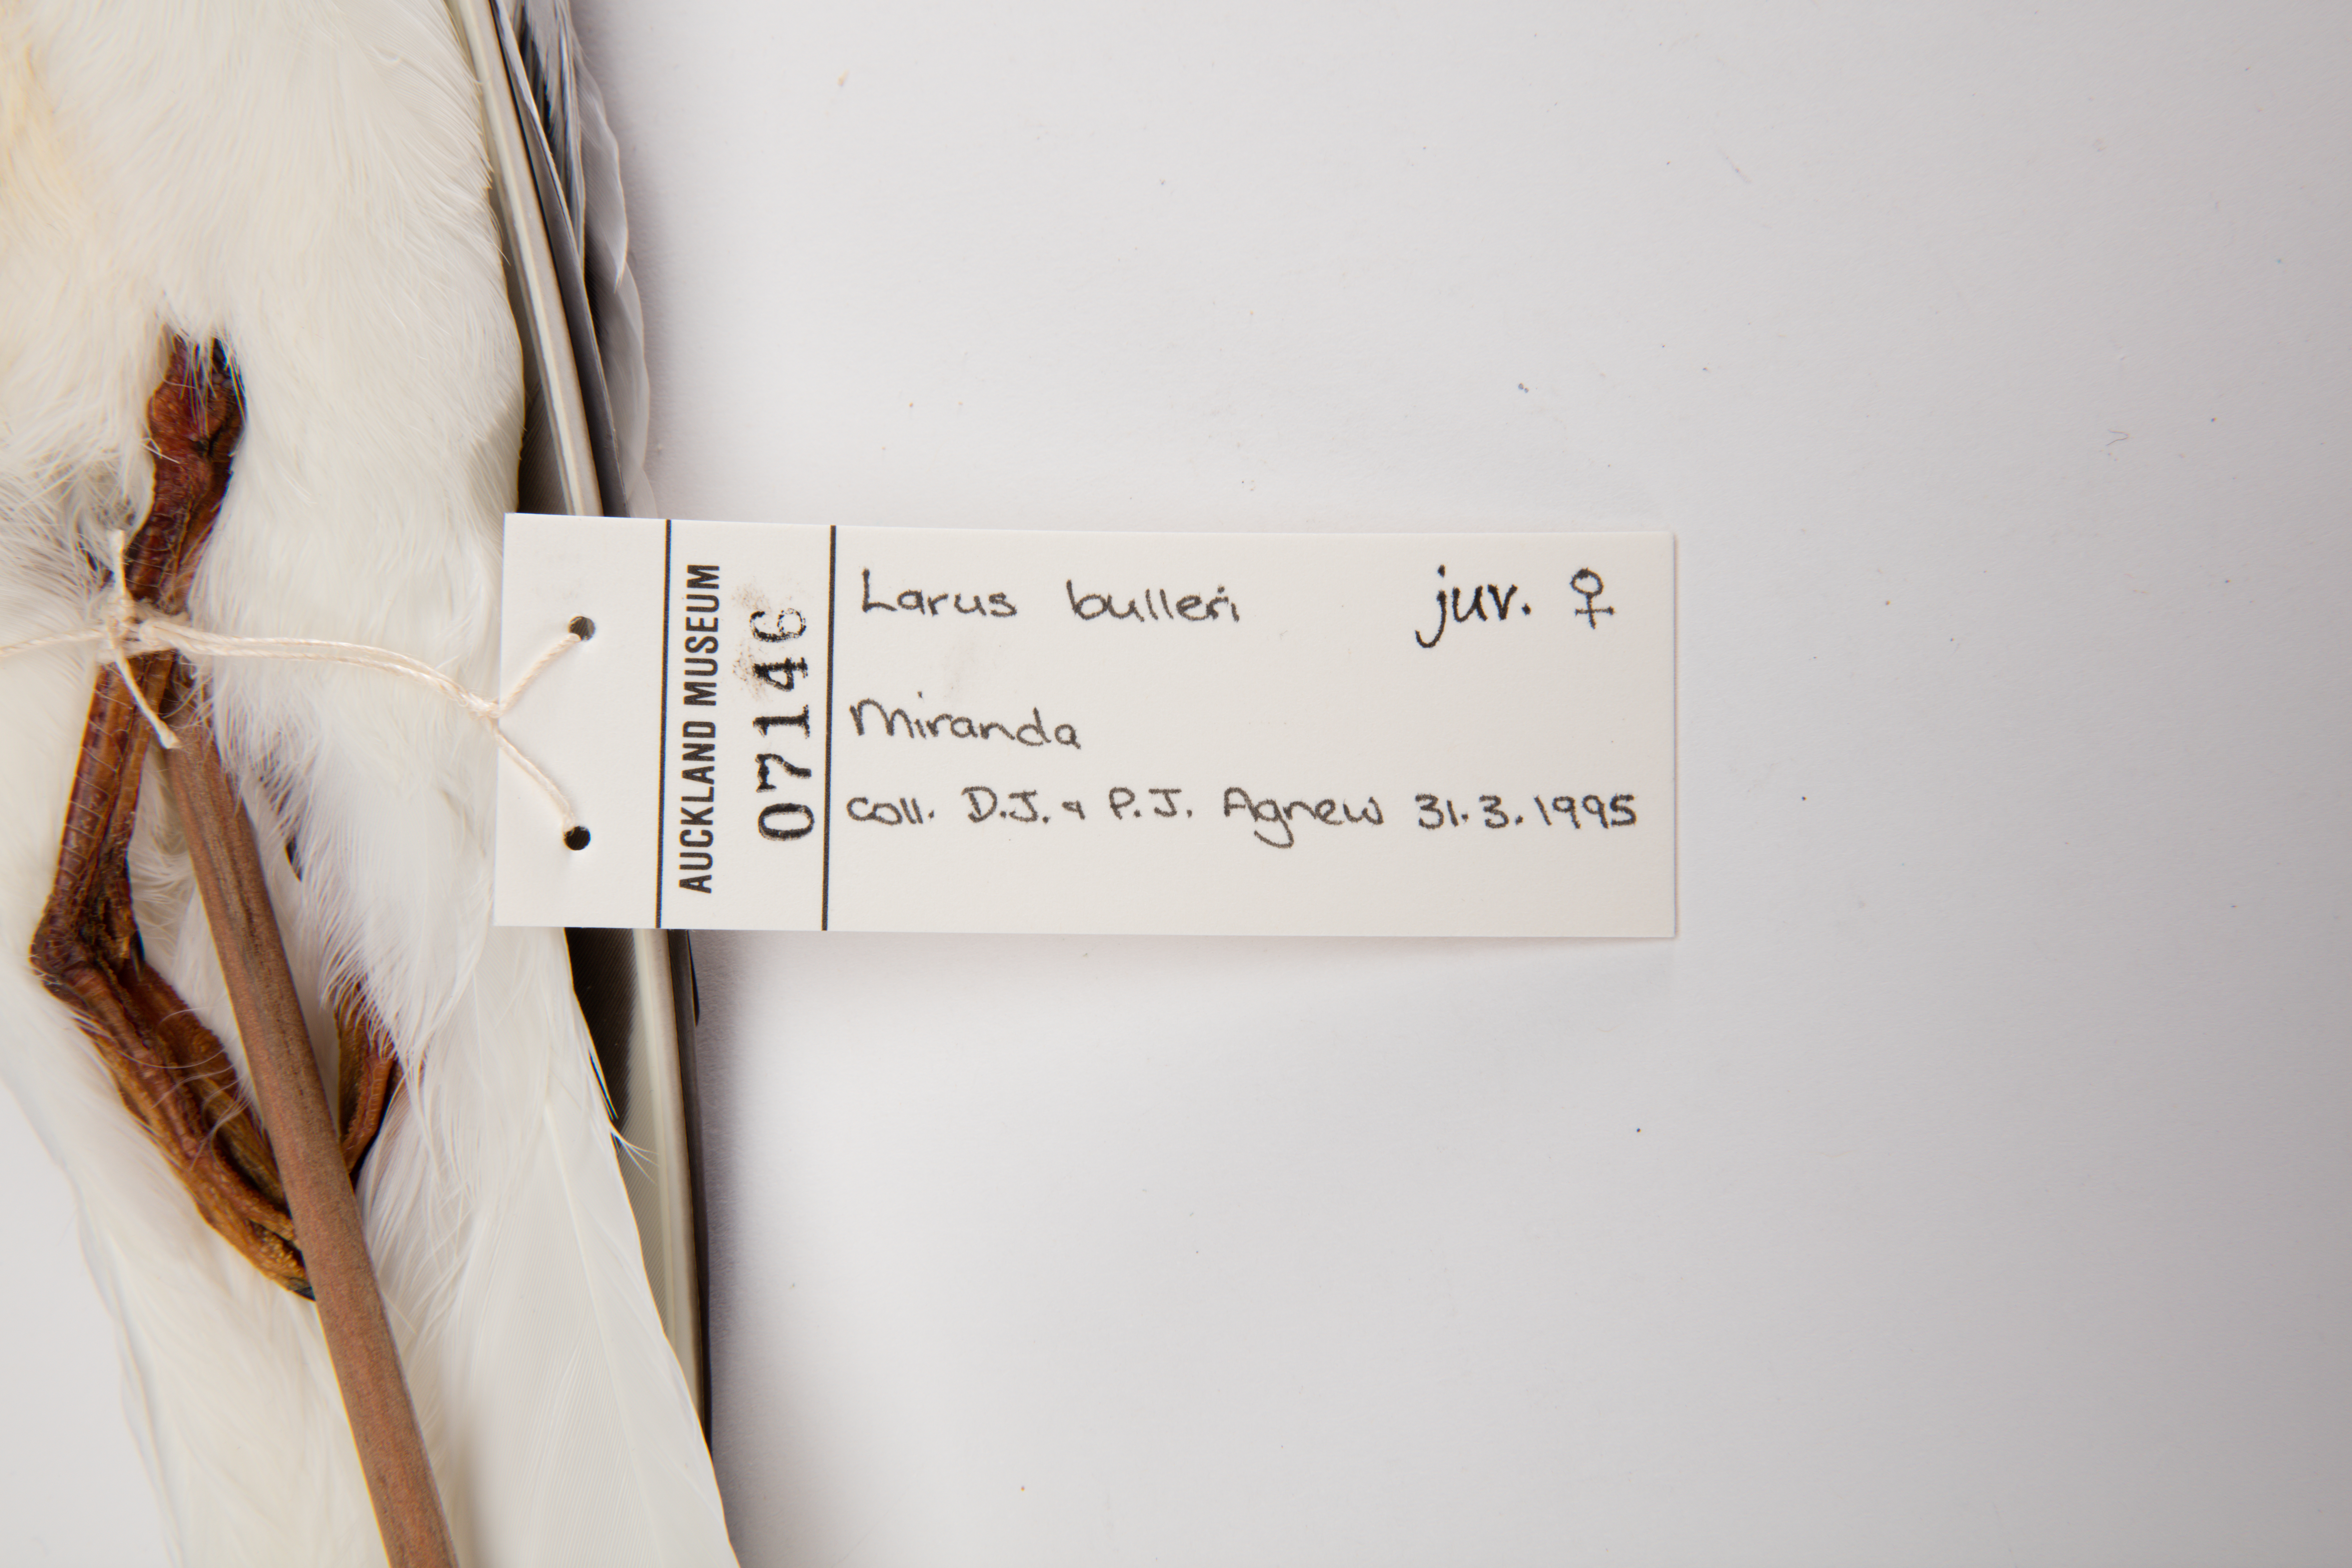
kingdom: Animalia
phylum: Chordata
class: Aves
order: Charadriiformes
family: Laridae
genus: Chroicocephalus
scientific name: Chroicocephalus bulleri
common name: Black-billed gull
